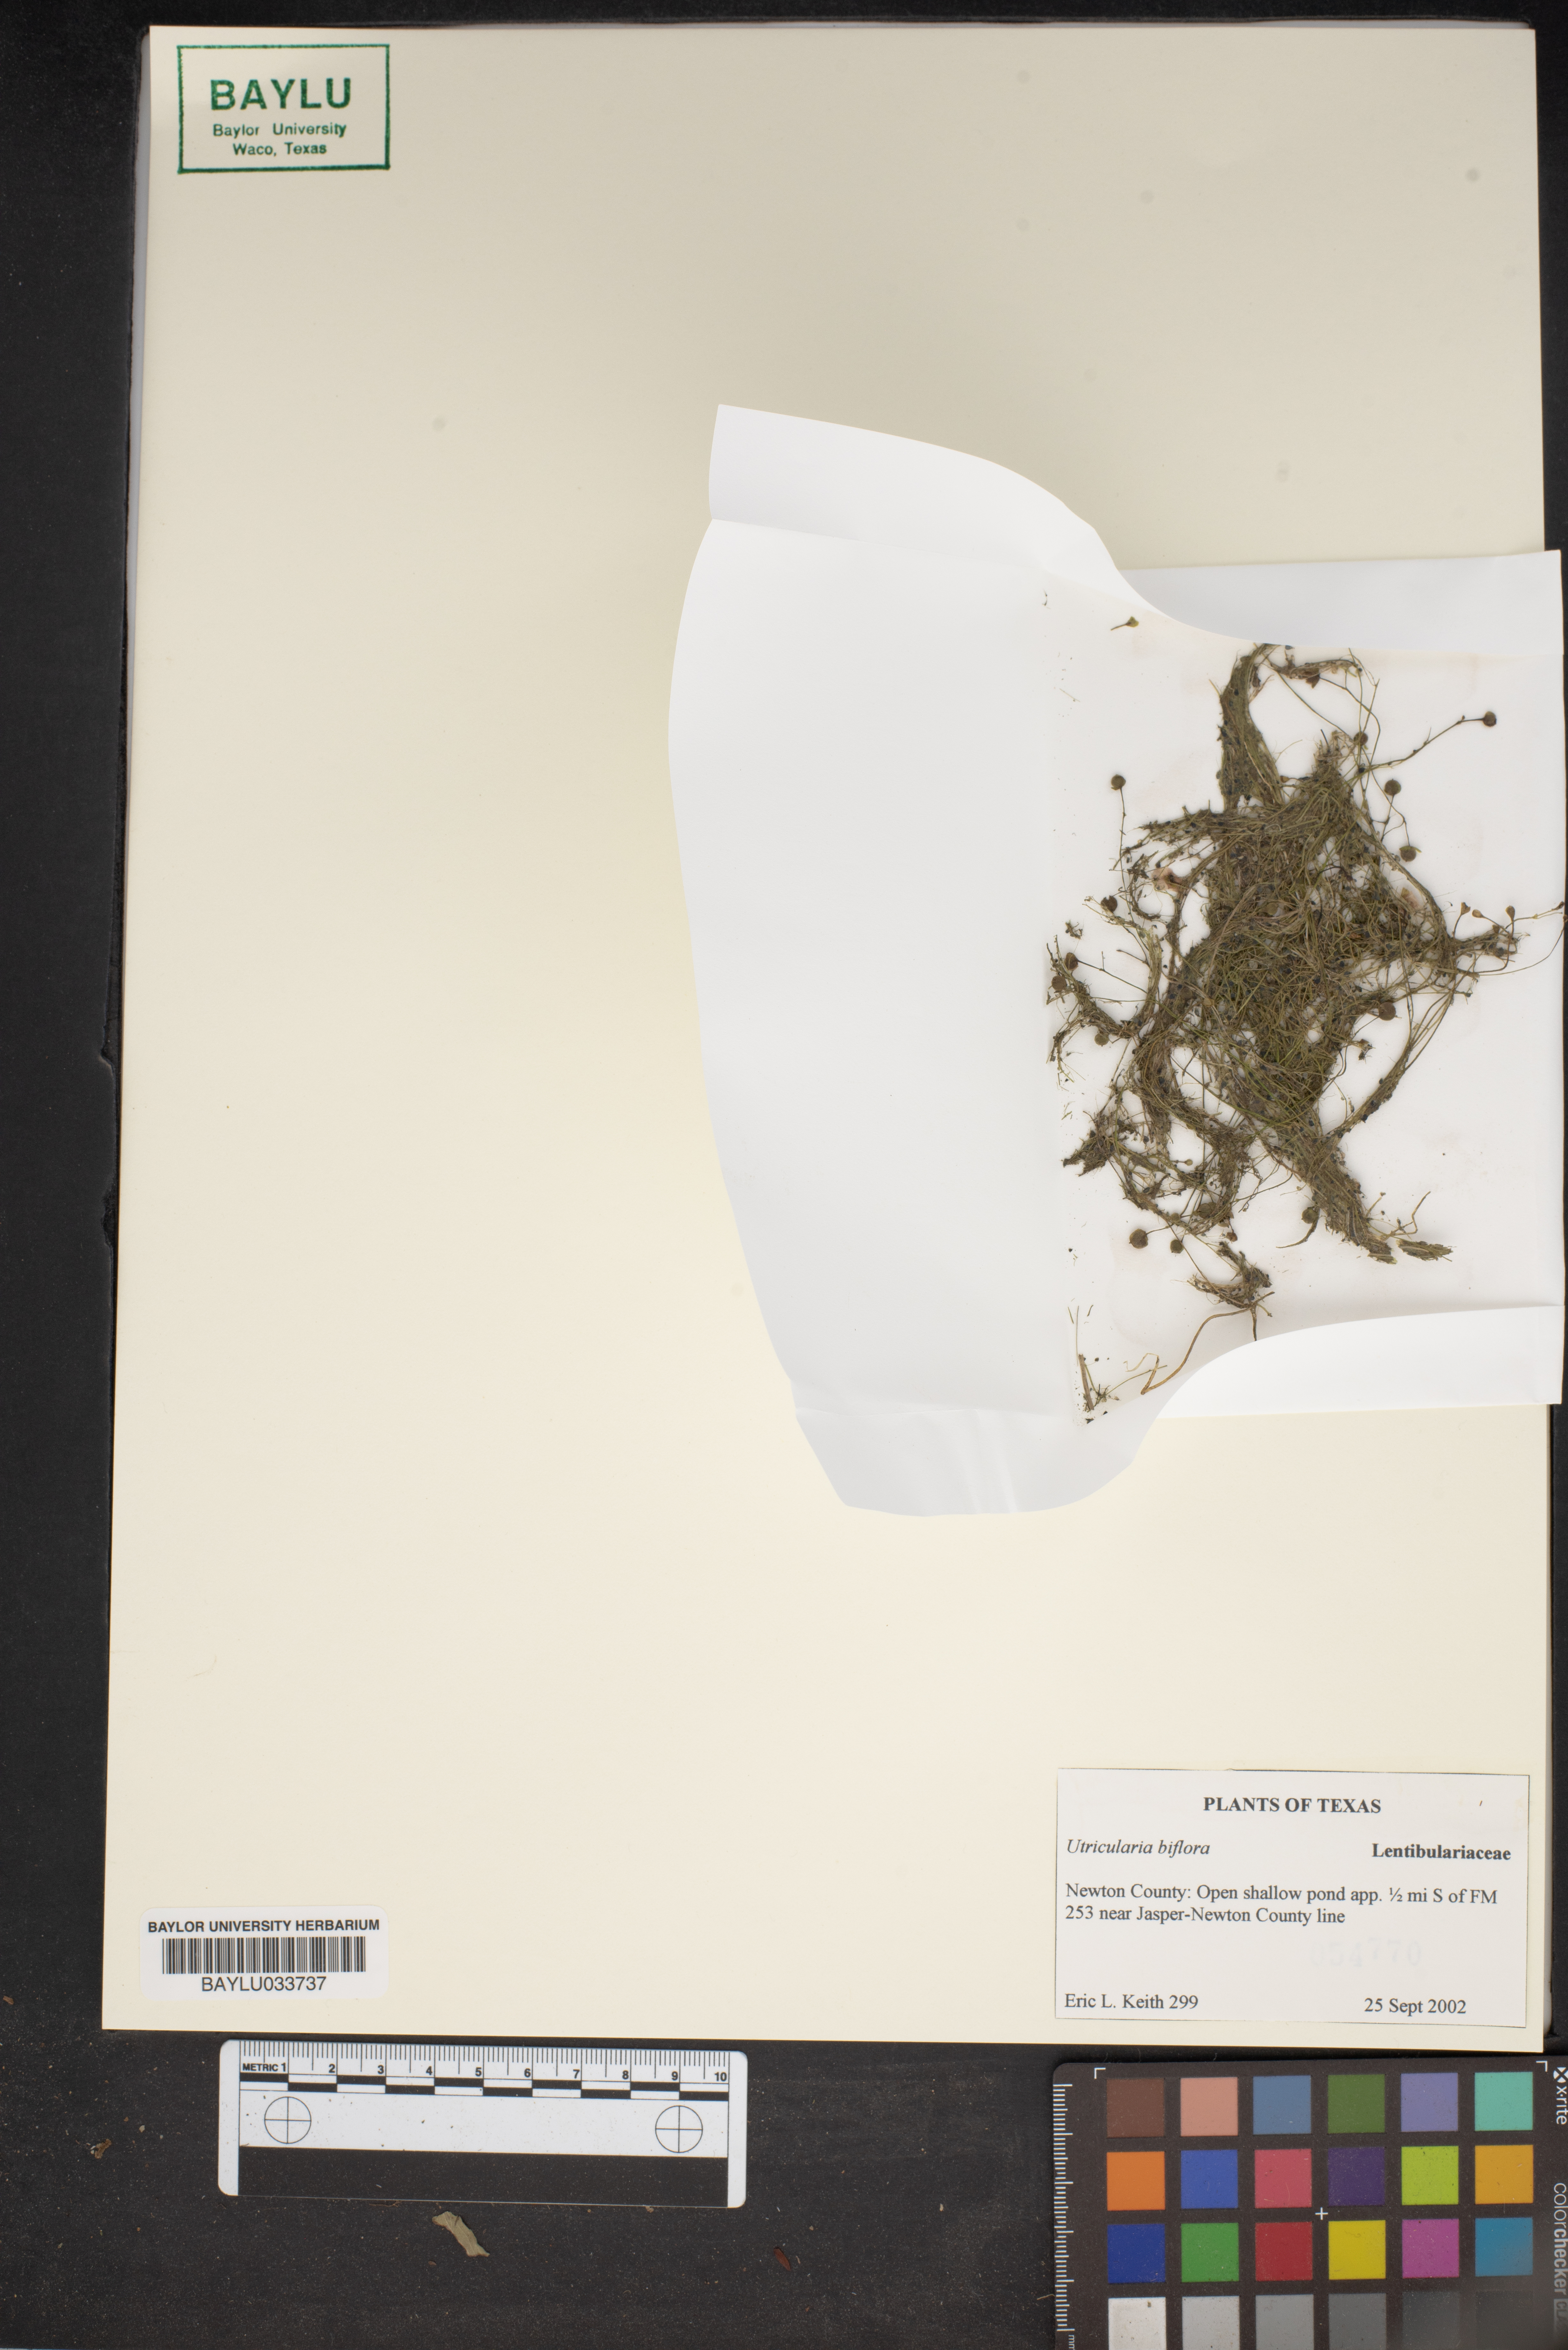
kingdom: Plantae
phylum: Tracheophyta
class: Magnoliopsida
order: Lamiales
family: Lentibulariaceae
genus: Utricularia
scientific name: Utricularia bifida
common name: Bifid bladderwort
